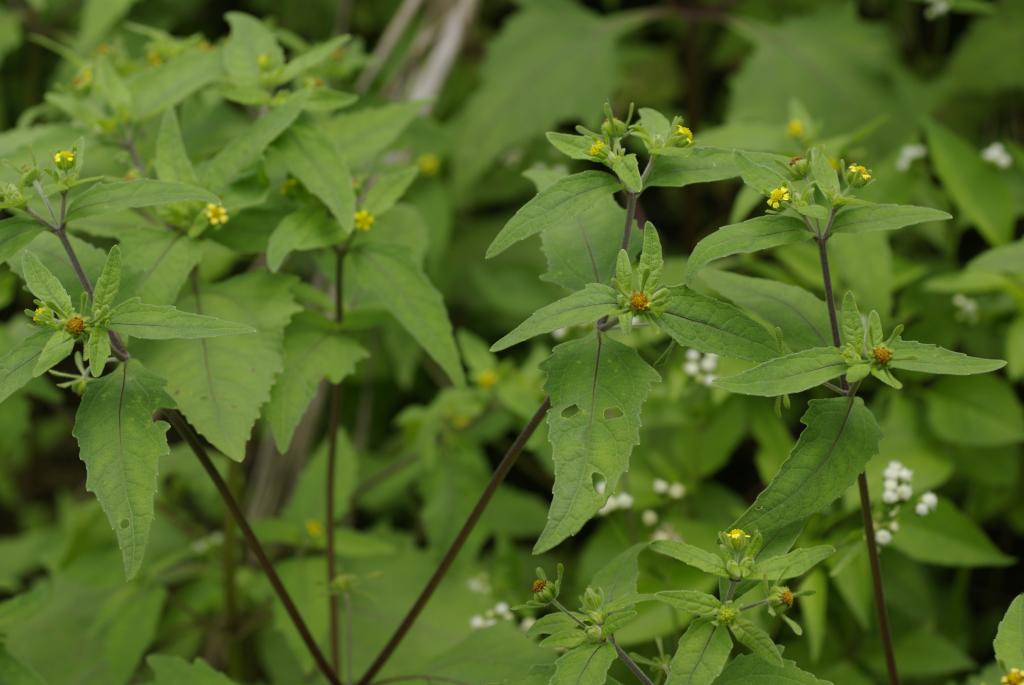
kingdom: Plantae
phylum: Tracheophyta
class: Magnoliopsida
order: Asterales
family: Asteraceae
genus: Sigesbeckia
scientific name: Sigesbeckia orientalis
